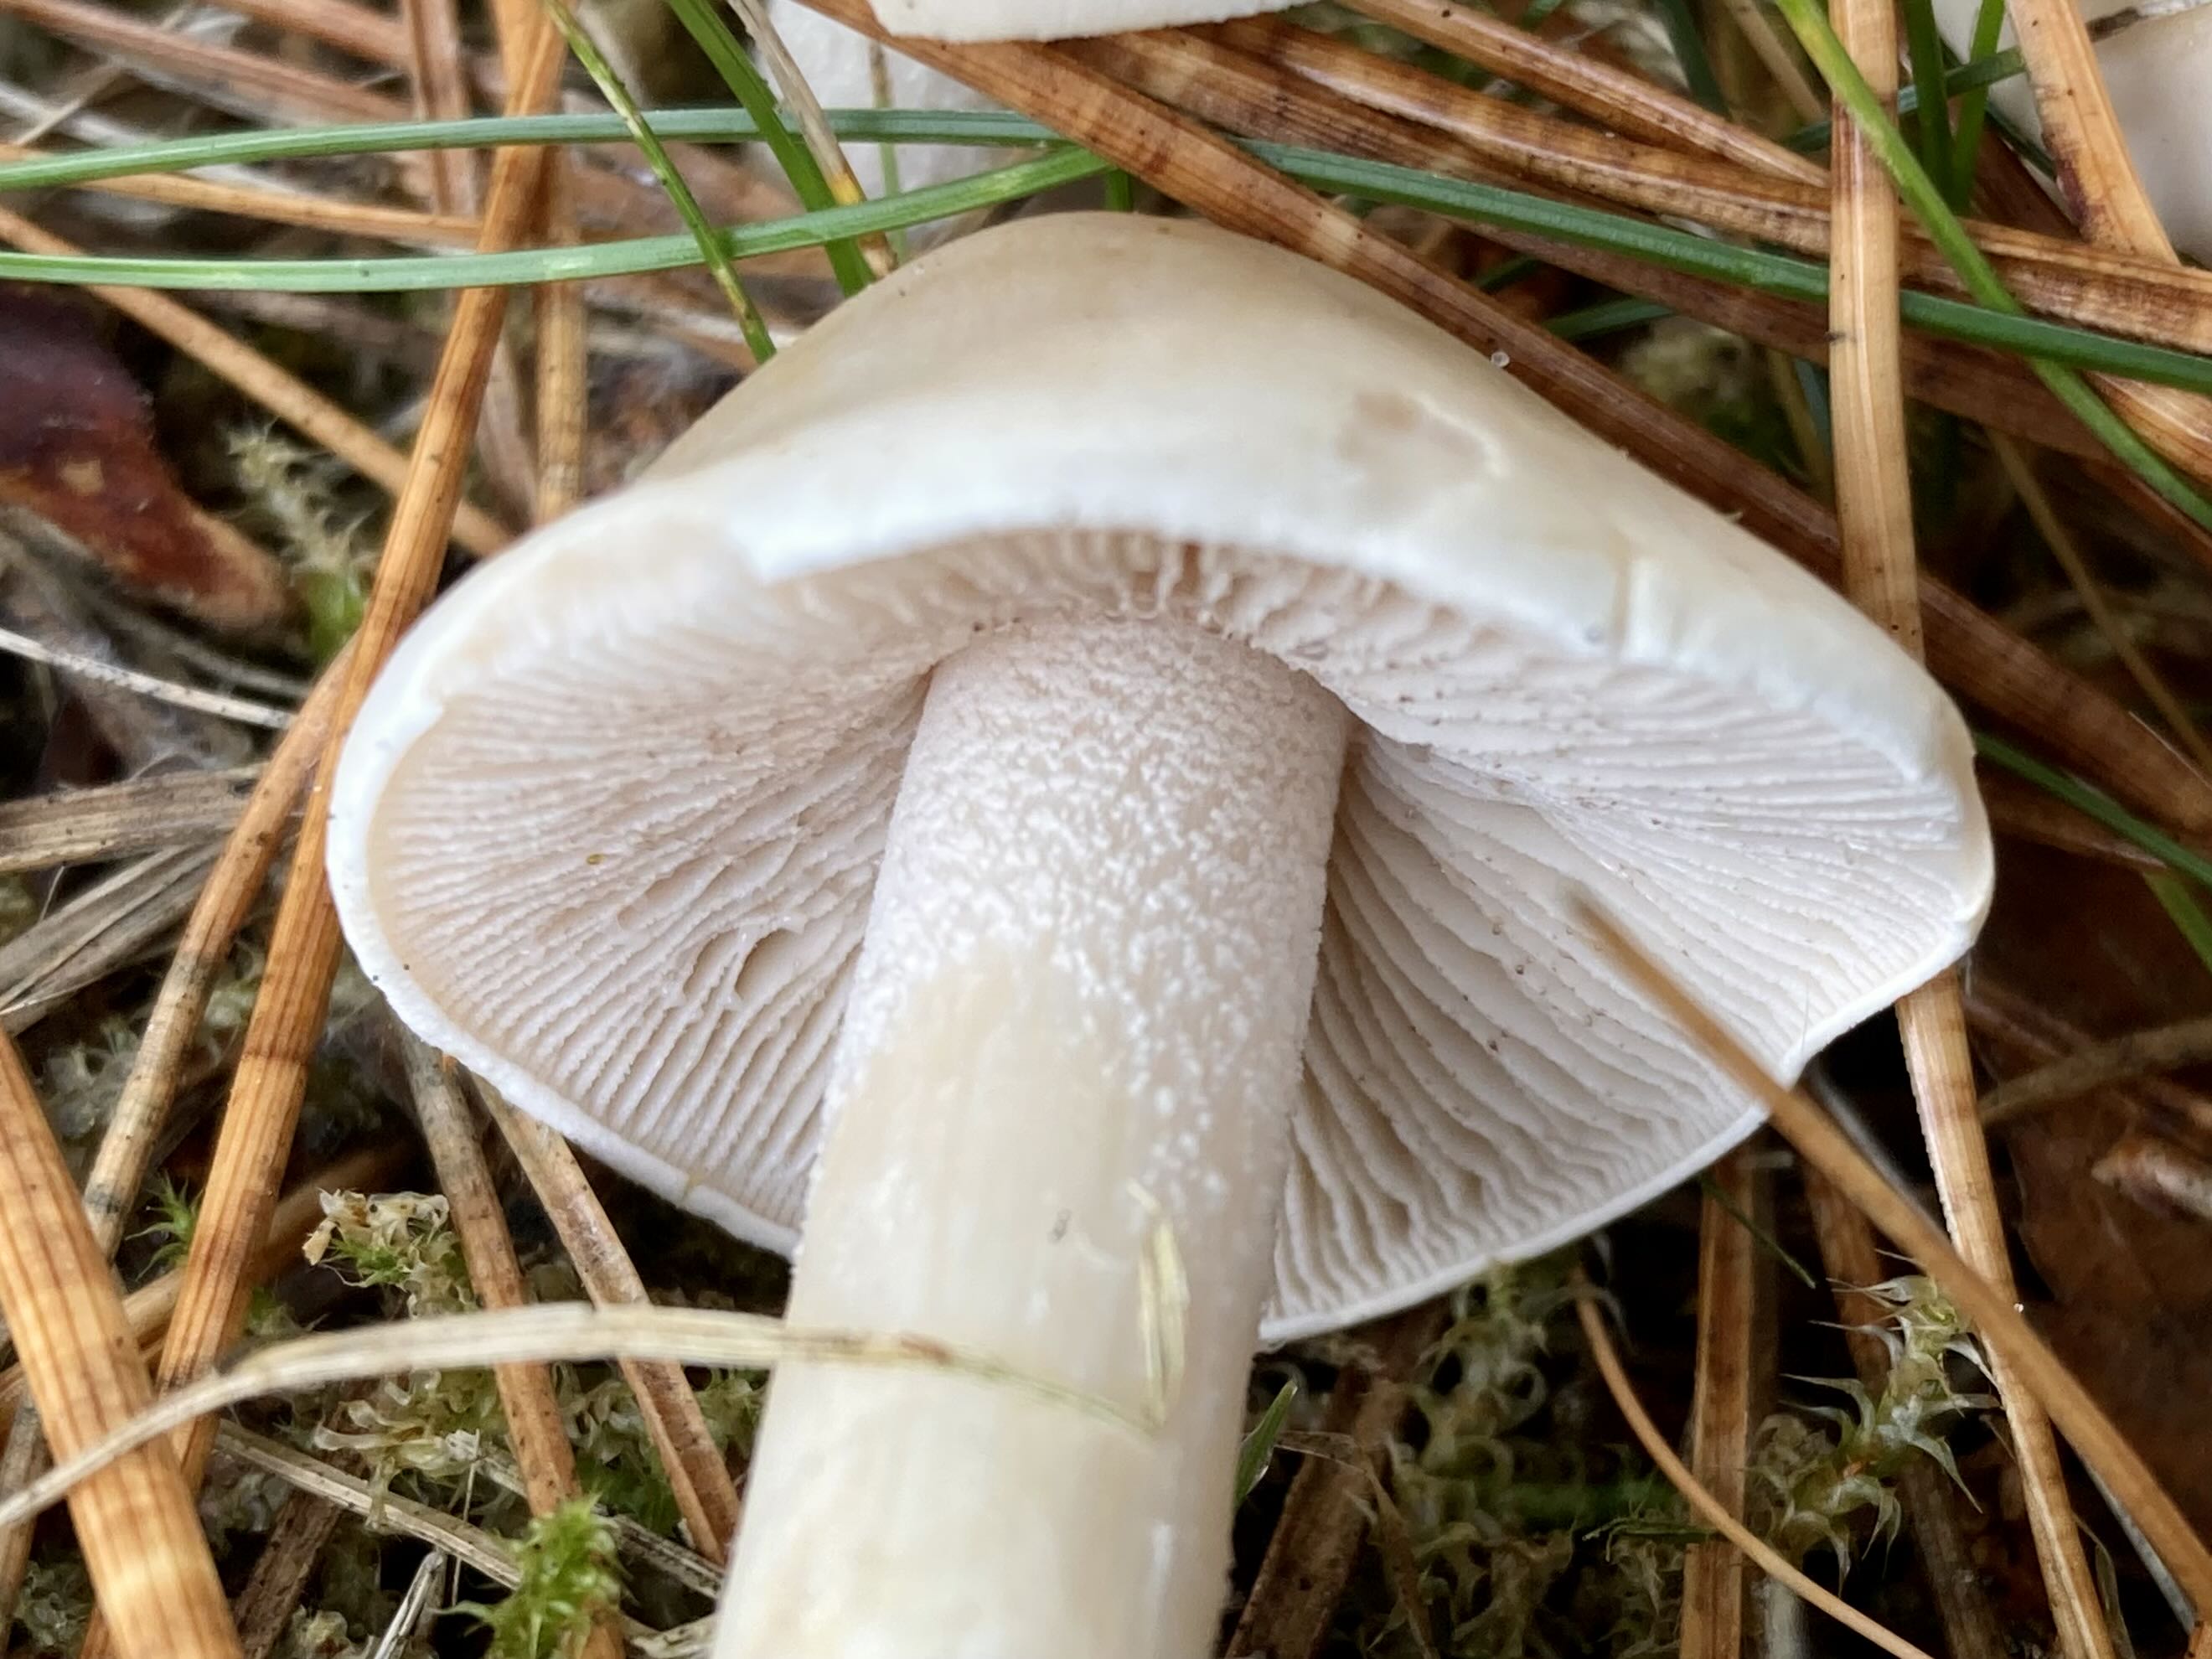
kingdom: Fungi
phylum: Basidiomycota
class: Agaricomycetes
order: Agaricales
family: Hymenogastraceae
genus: Hebeloma
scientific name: Hebeloma crustuliniforme
